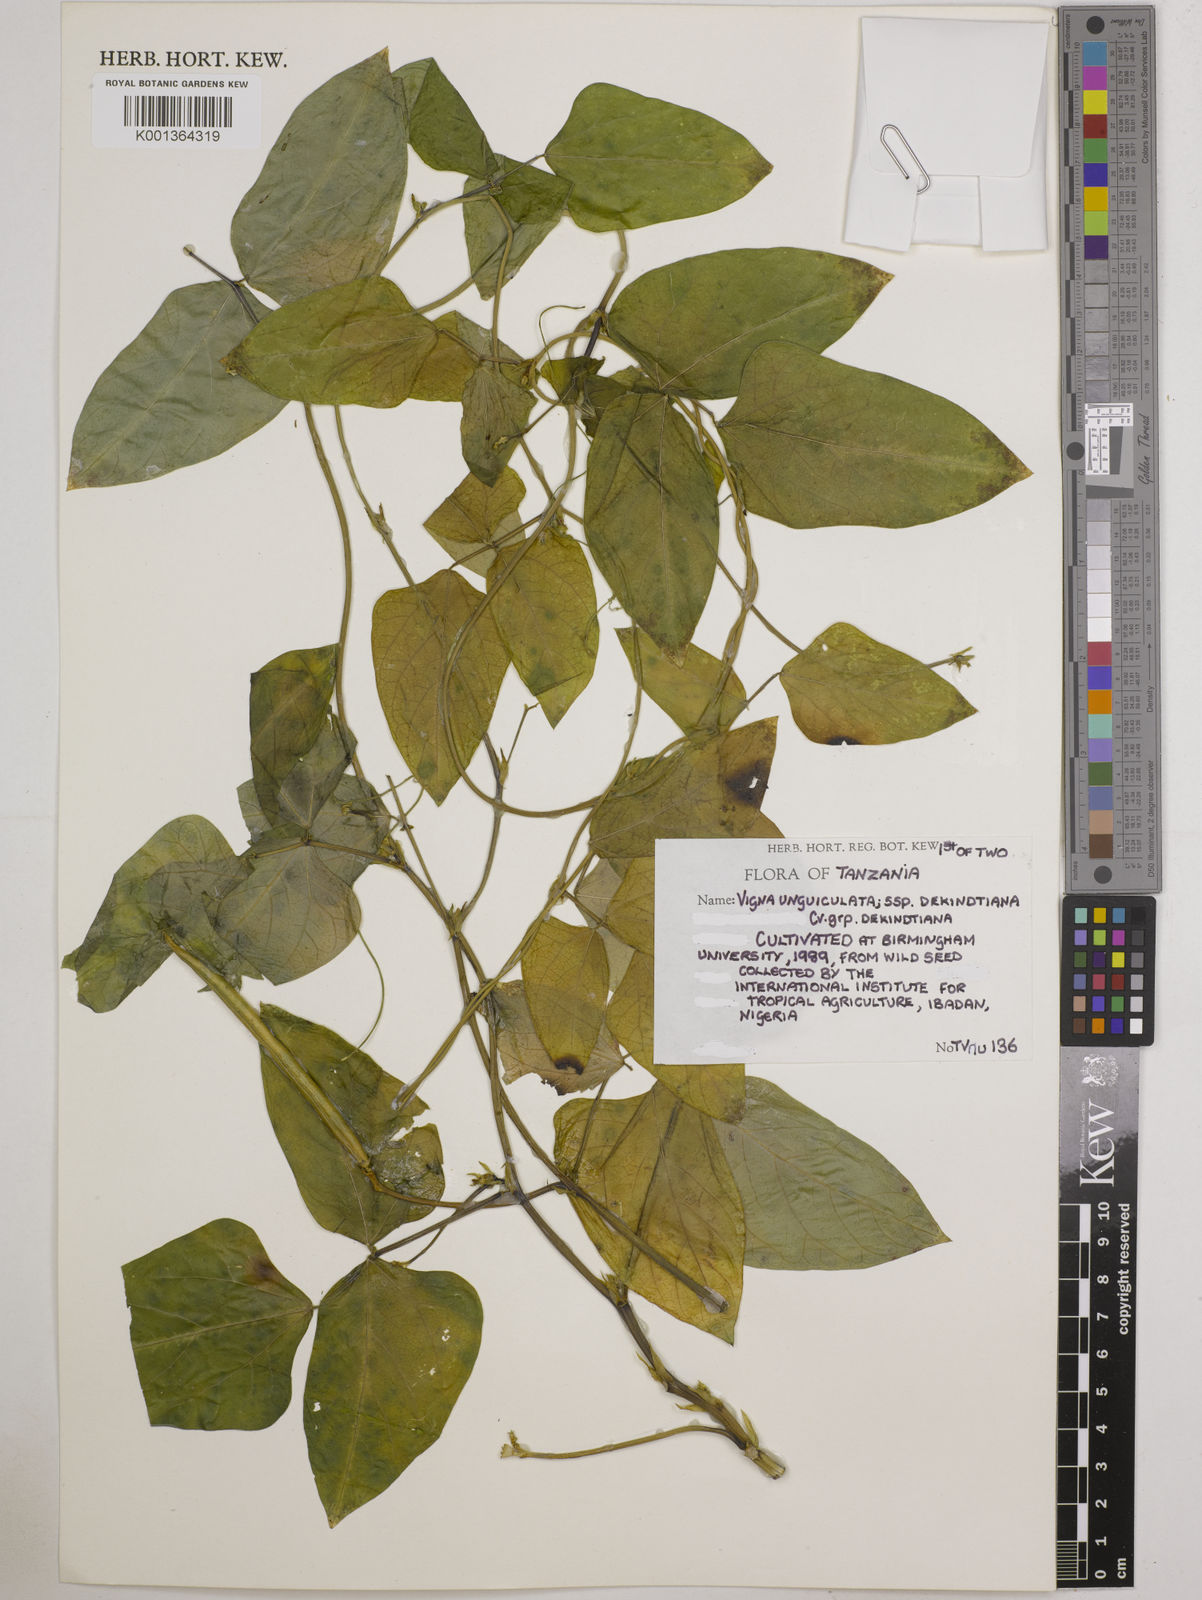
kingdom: Plantae
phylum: Tracheophyta
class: Magnoliopsida
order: Fabales
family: Fabaceae
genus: Vigna
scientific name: Vigna
